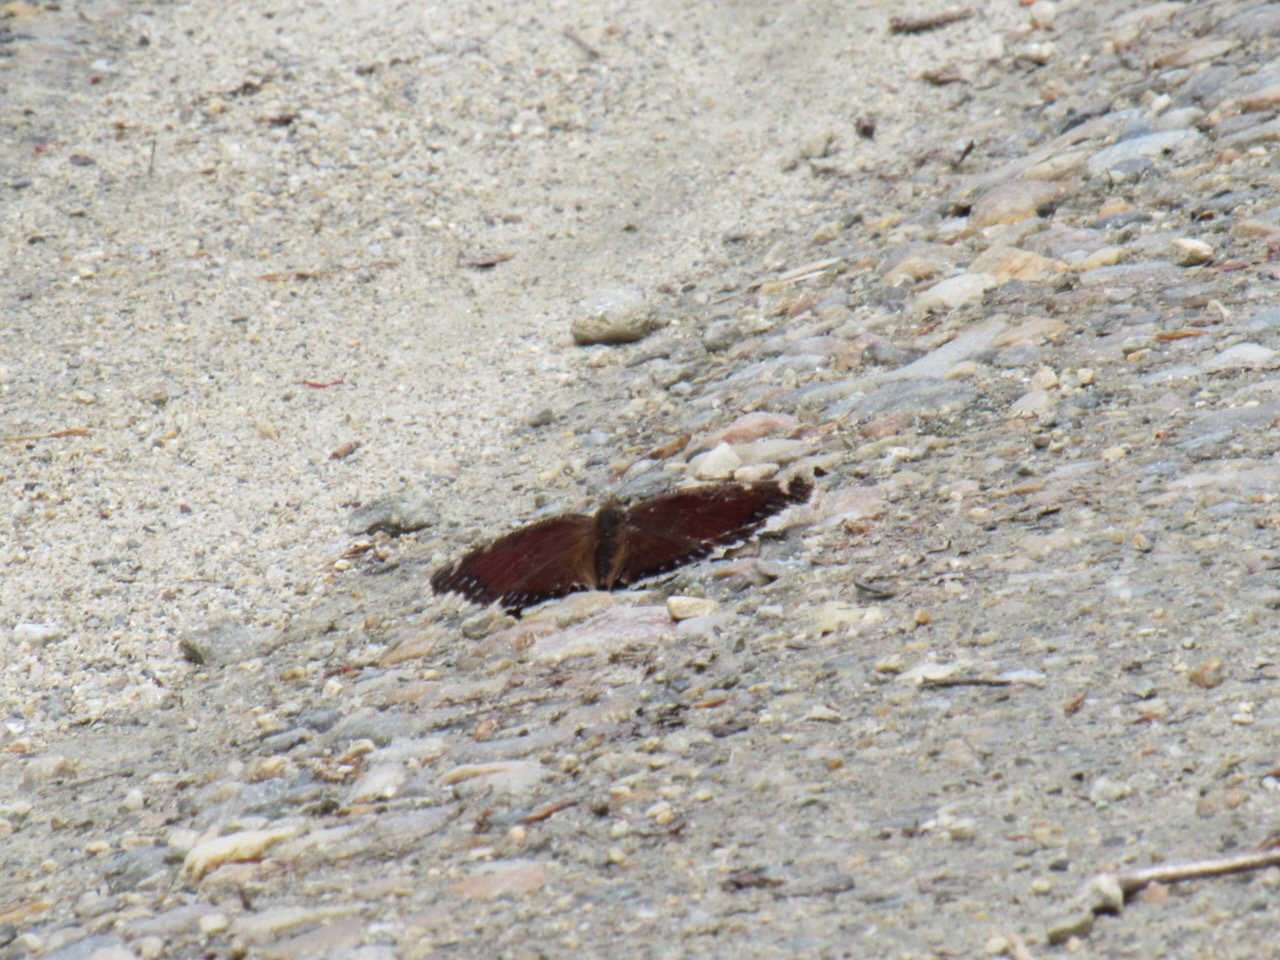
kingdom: Animalia
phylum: Arthropoda
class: Insecta
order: Lepidoptera
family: Nymphalidae
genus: Nymphalis
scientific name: Nymphalis antiopa
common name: Mourning Cloak
